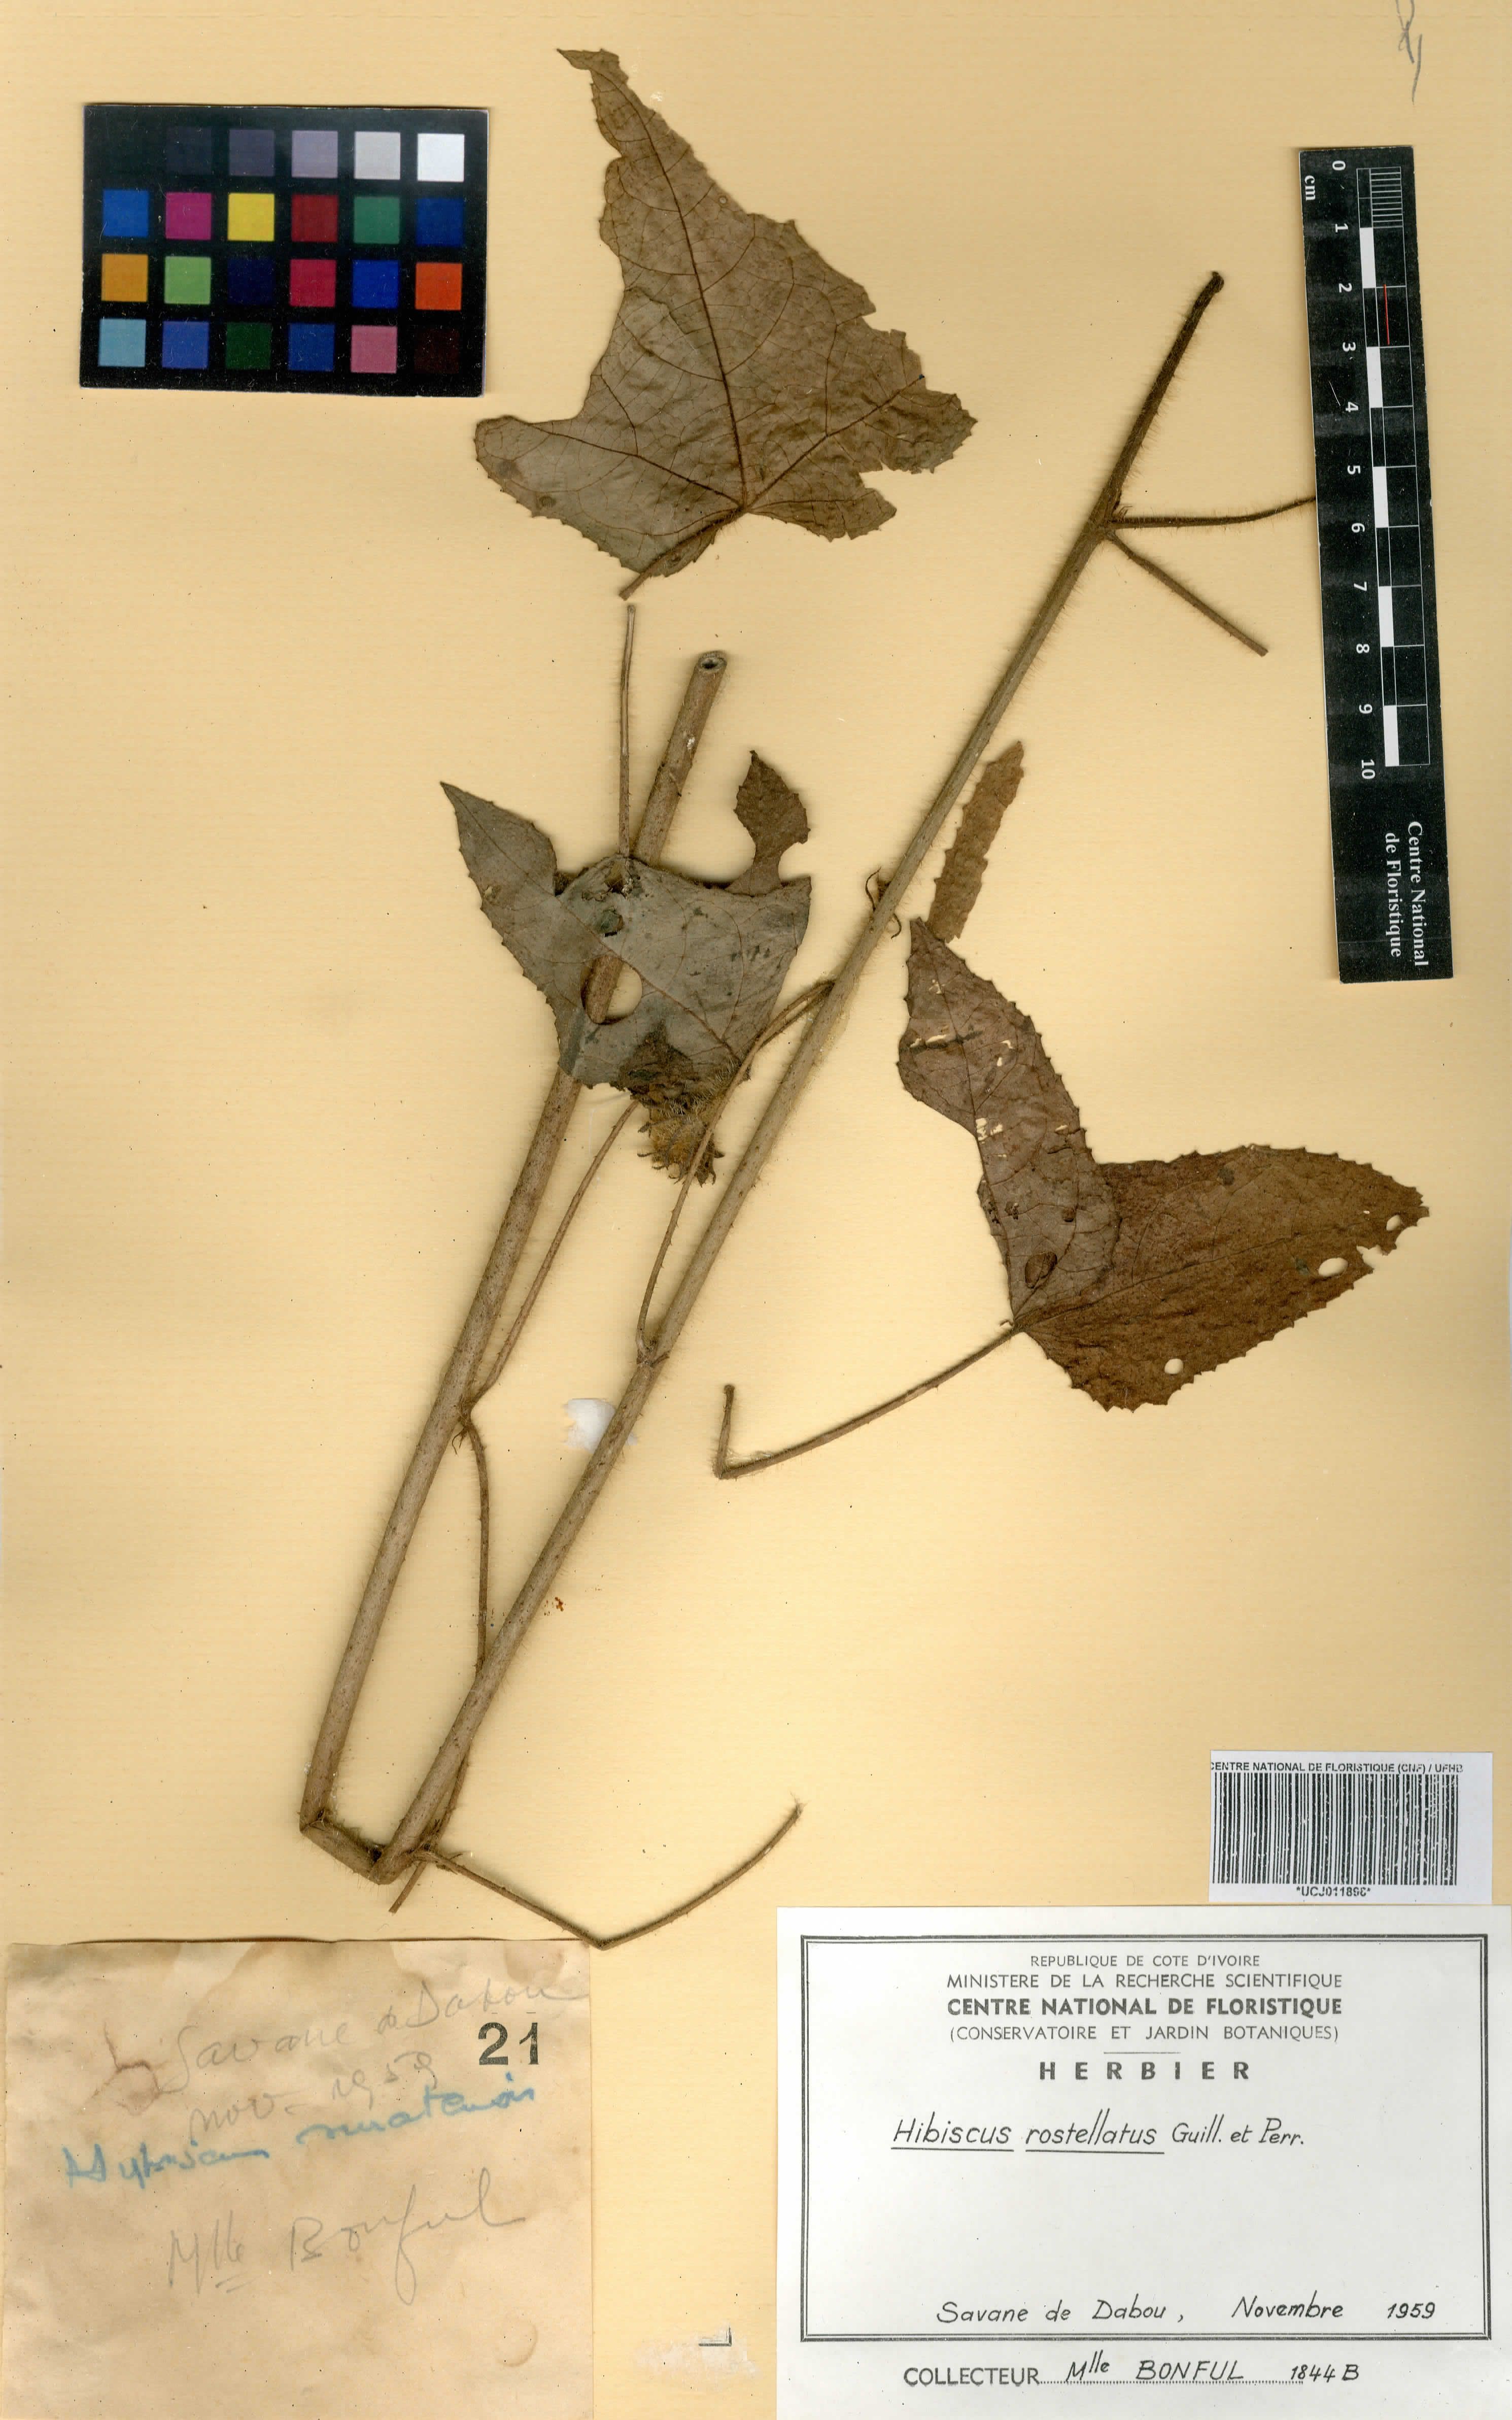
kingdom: Plantae
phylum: Tracheophyta
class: Magnoliopsida
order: Malvales
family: Malvaceae
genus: Hibiscus
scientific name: Hibiscus rostellatus
